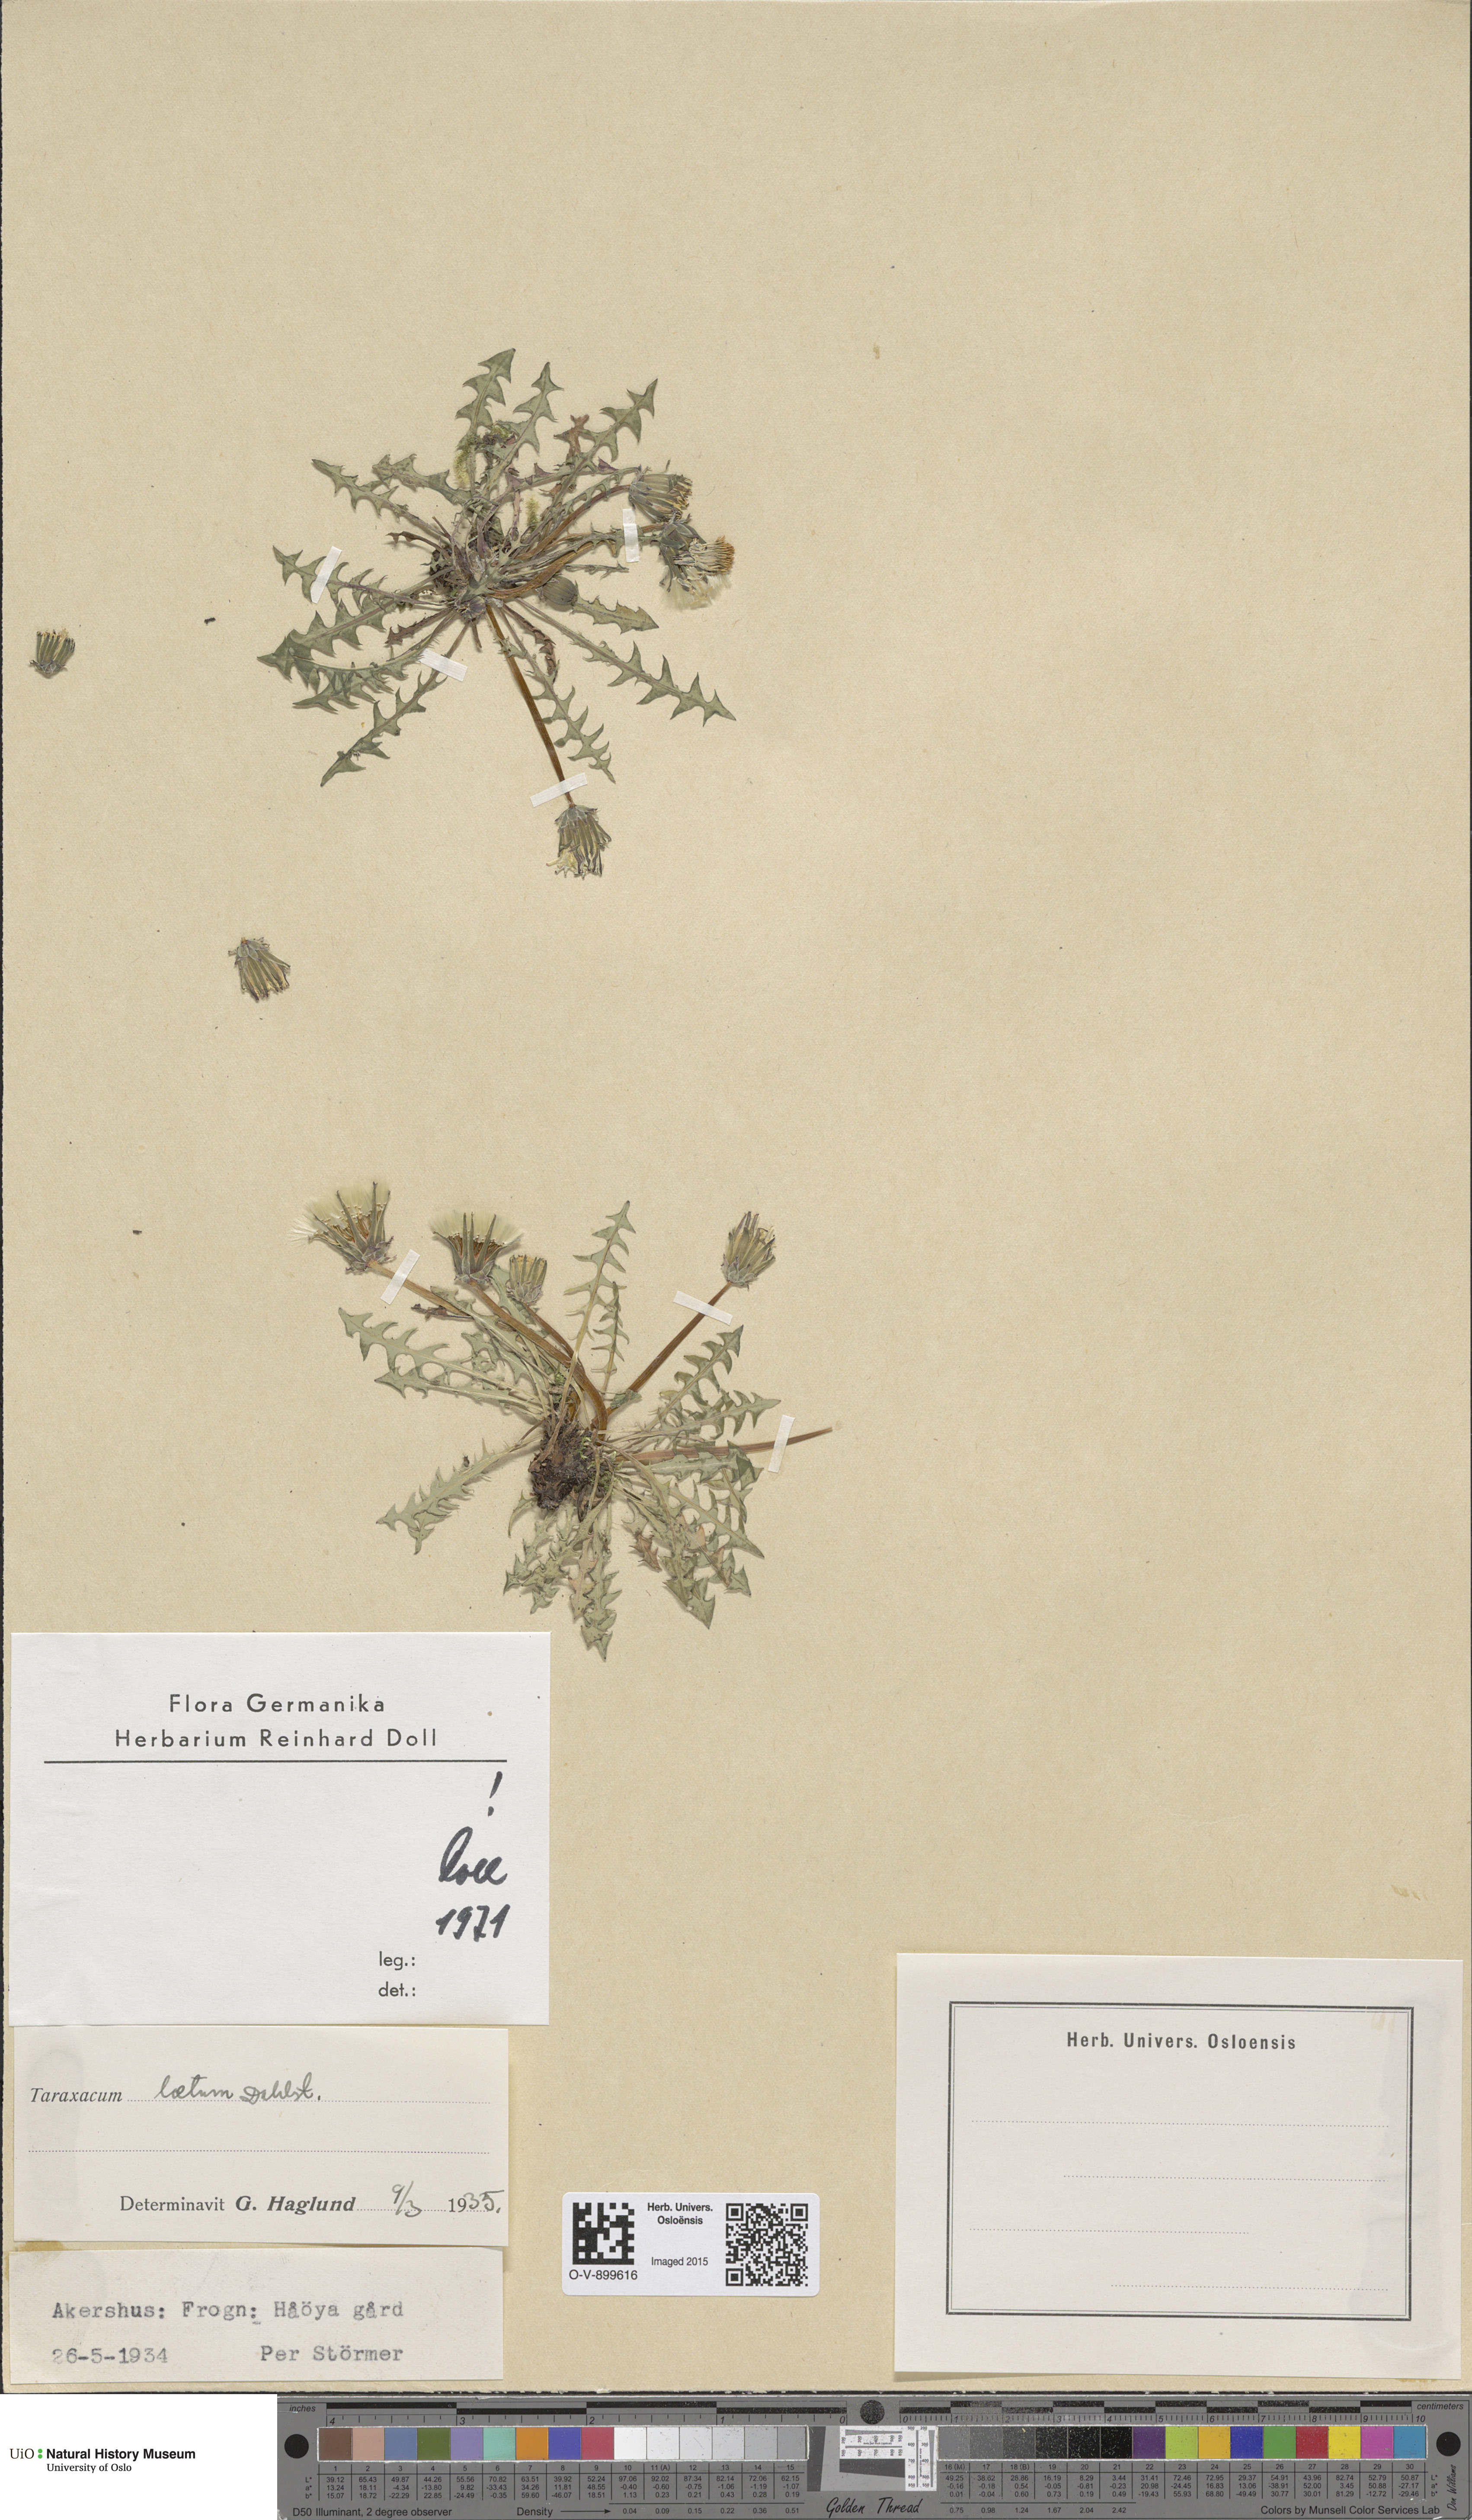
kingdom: Plantae
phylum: Tracheophyta
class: Magnoliopsida
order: Asterales
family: Asteraceae
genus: Taraxacum
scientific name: Taraxacum laetum
